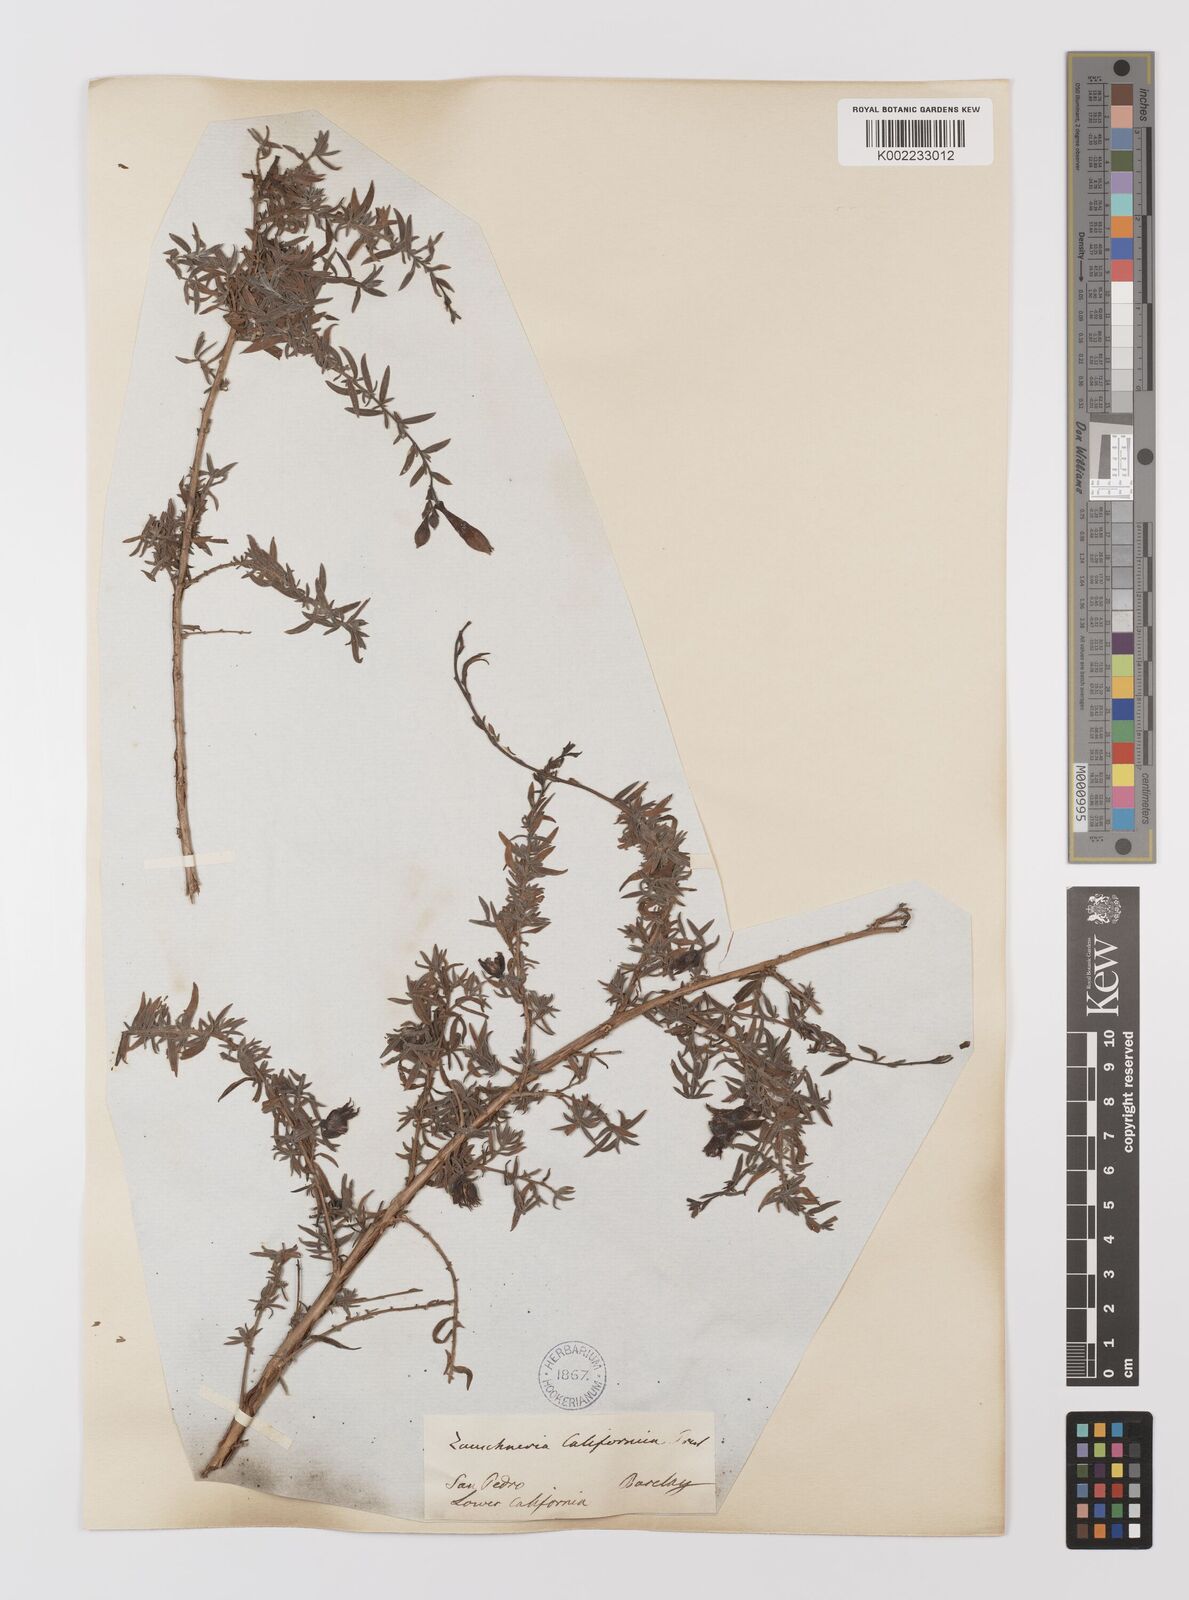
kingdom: Plantae
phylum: Tracheophyta
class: Magnoliopsida
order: Myrtales
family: Onagraceae
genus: Epilobium
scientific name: Epilobium canum
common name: California-fuchsia
